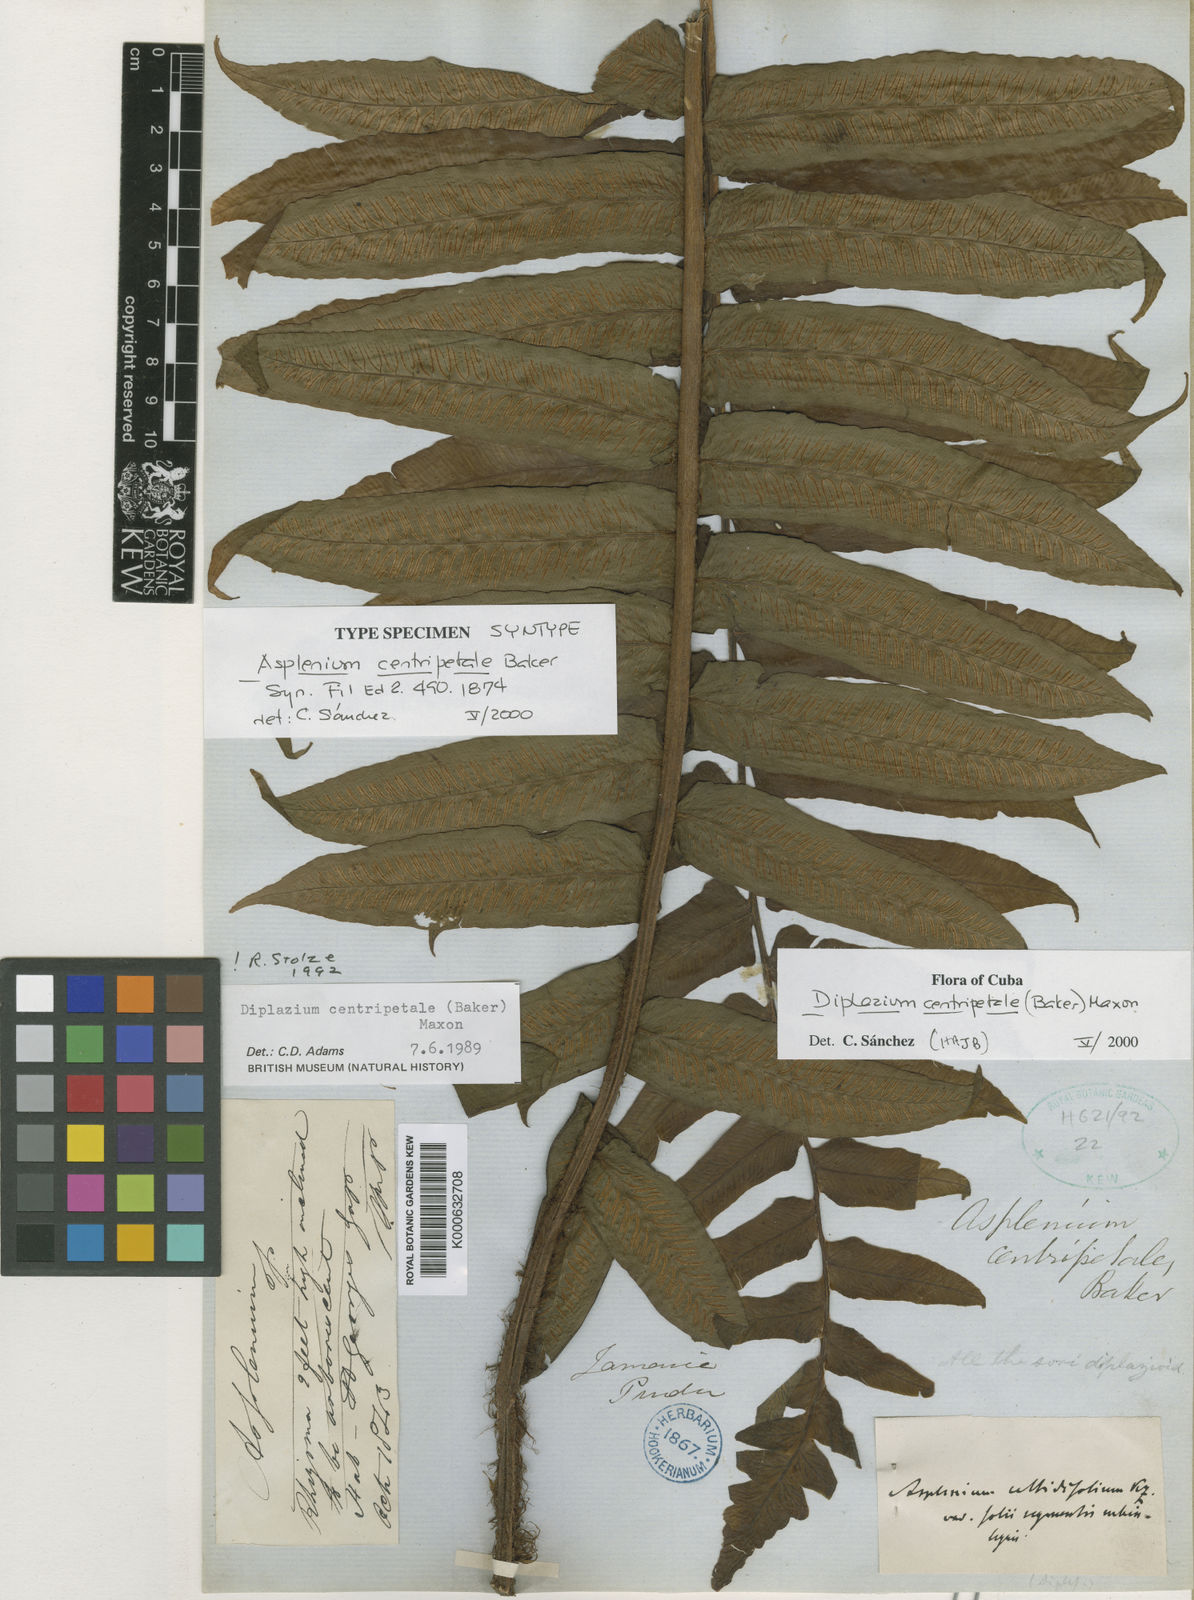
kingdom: Plantae
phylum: Tracheophyta
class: Polypodiopsida
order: Polypodiales
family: Athyriaceae
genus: Diplazium
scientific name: Diplazium centripetale
